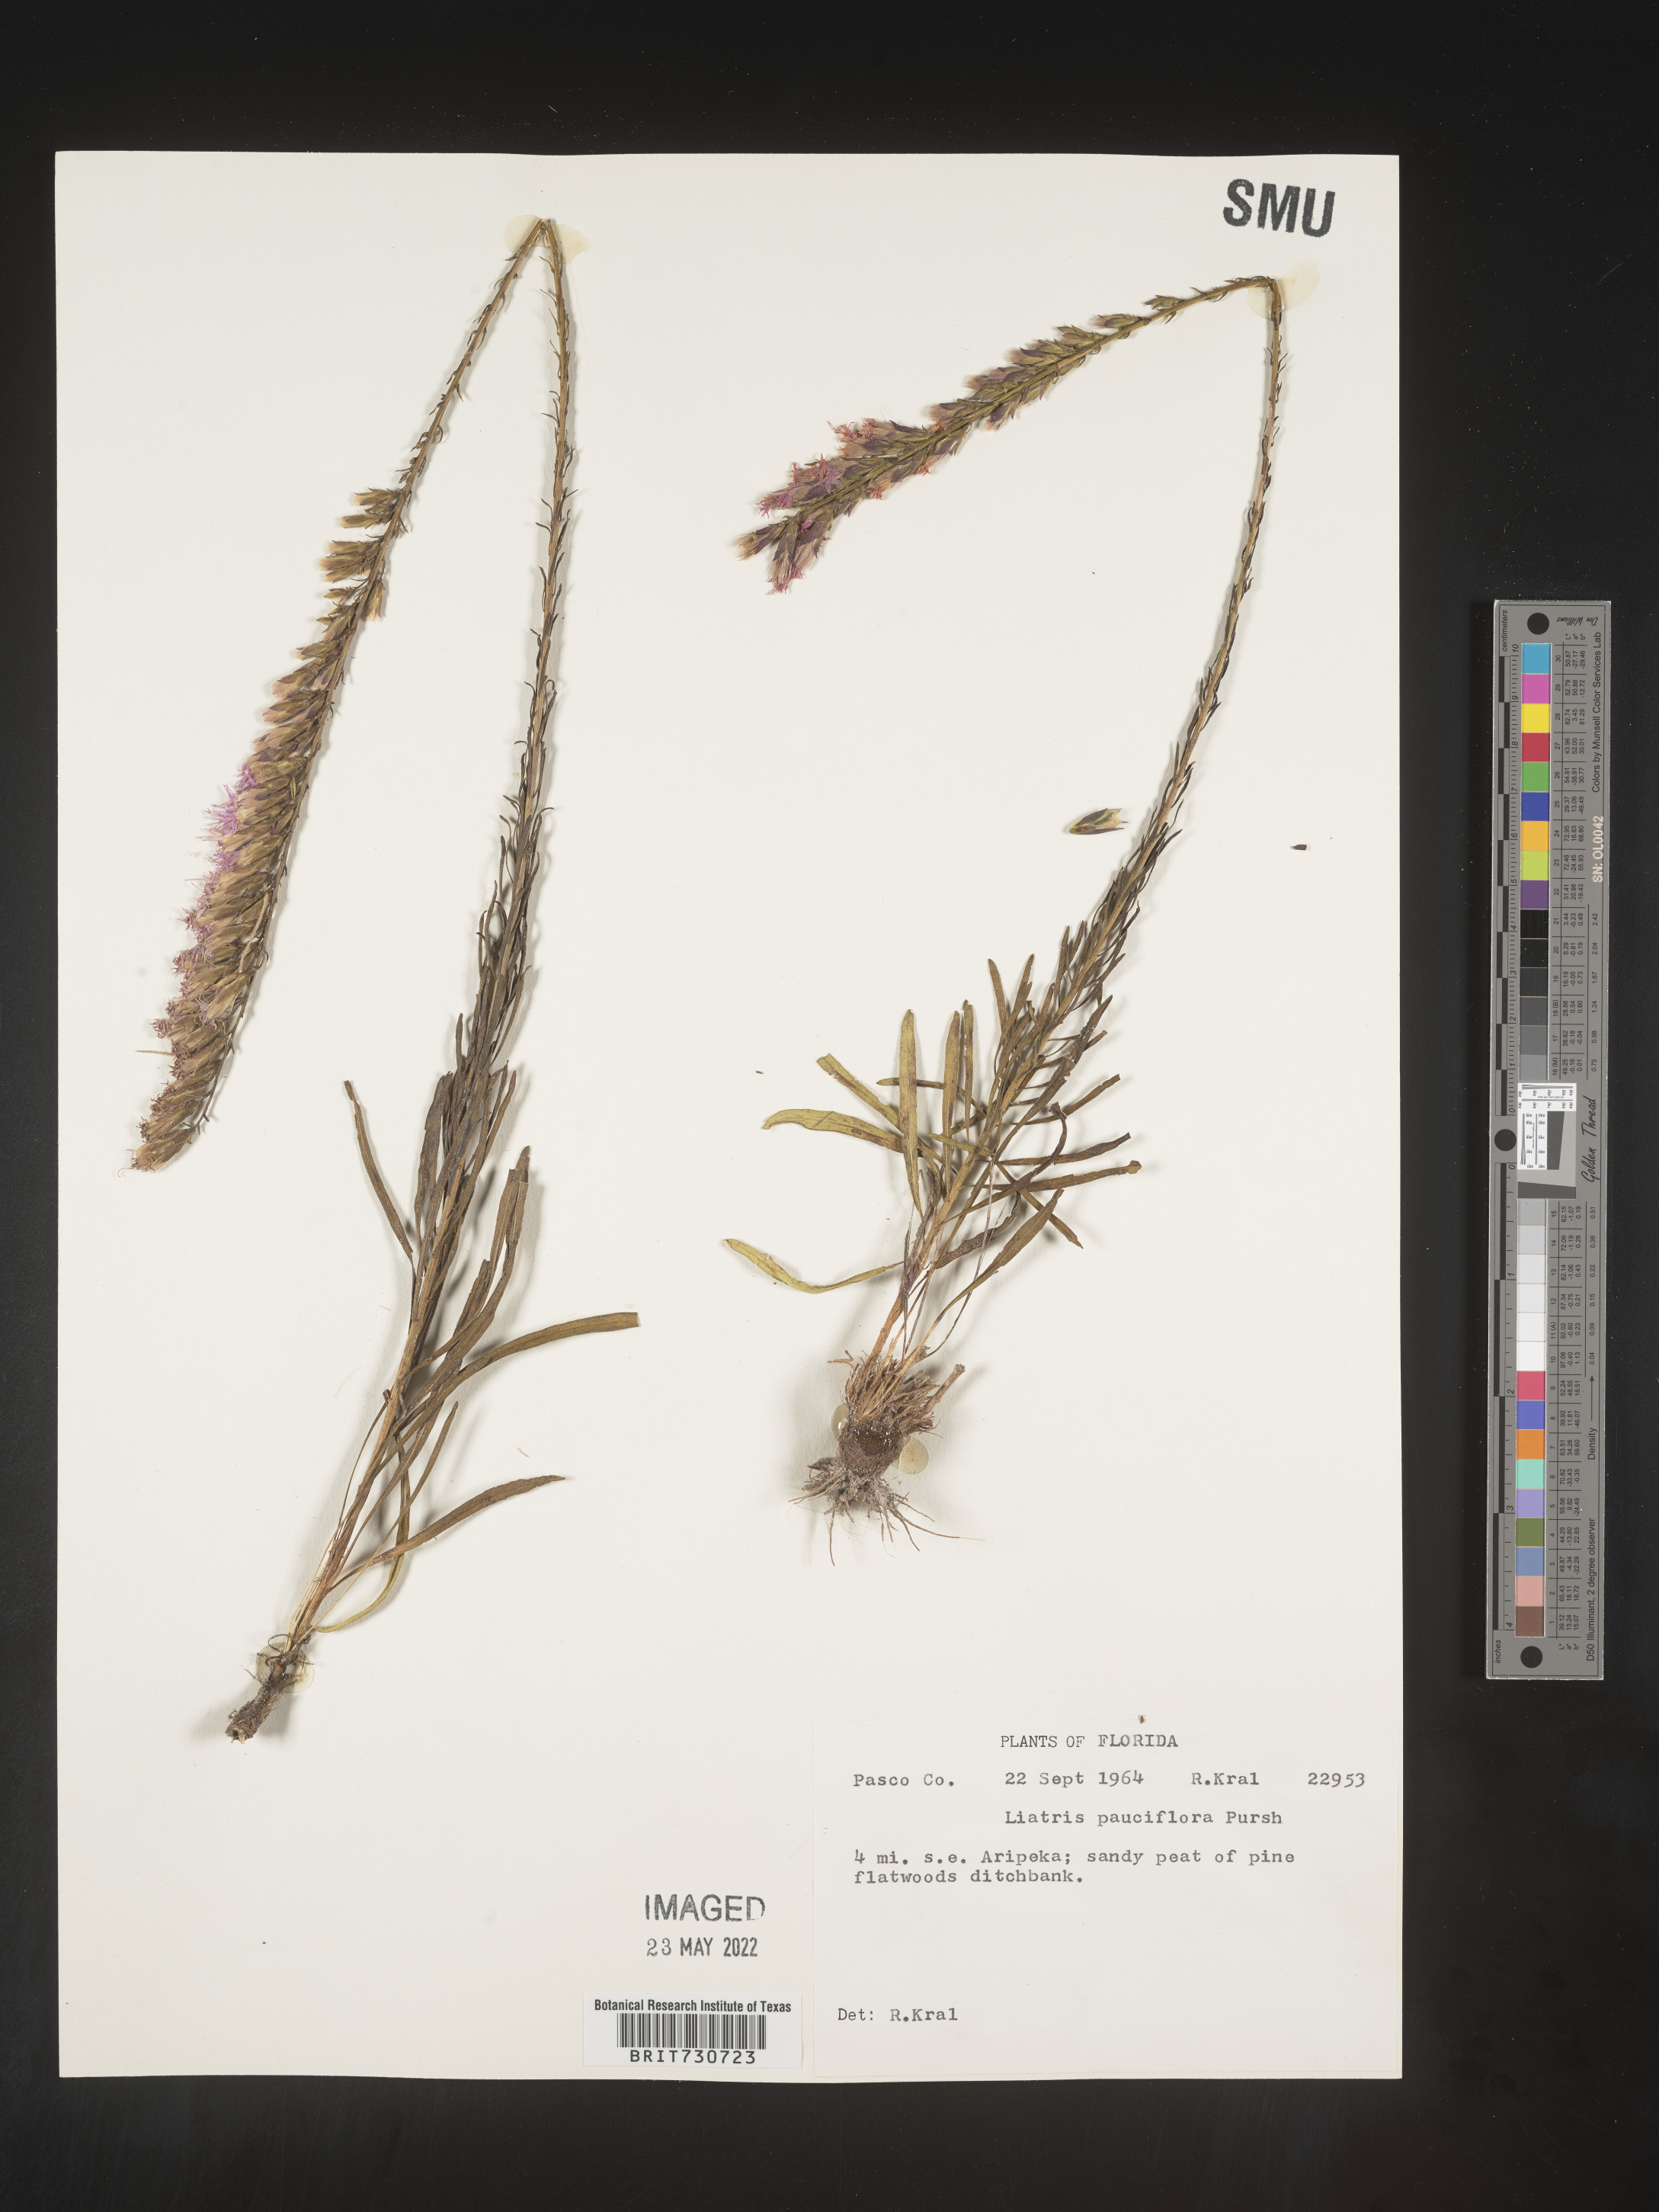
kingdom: Plantae
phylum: Tracheophyta
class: Magnoliopsida
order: Asterales
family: Asteraceae
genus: Liatris
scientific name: Liatris pauciflora
